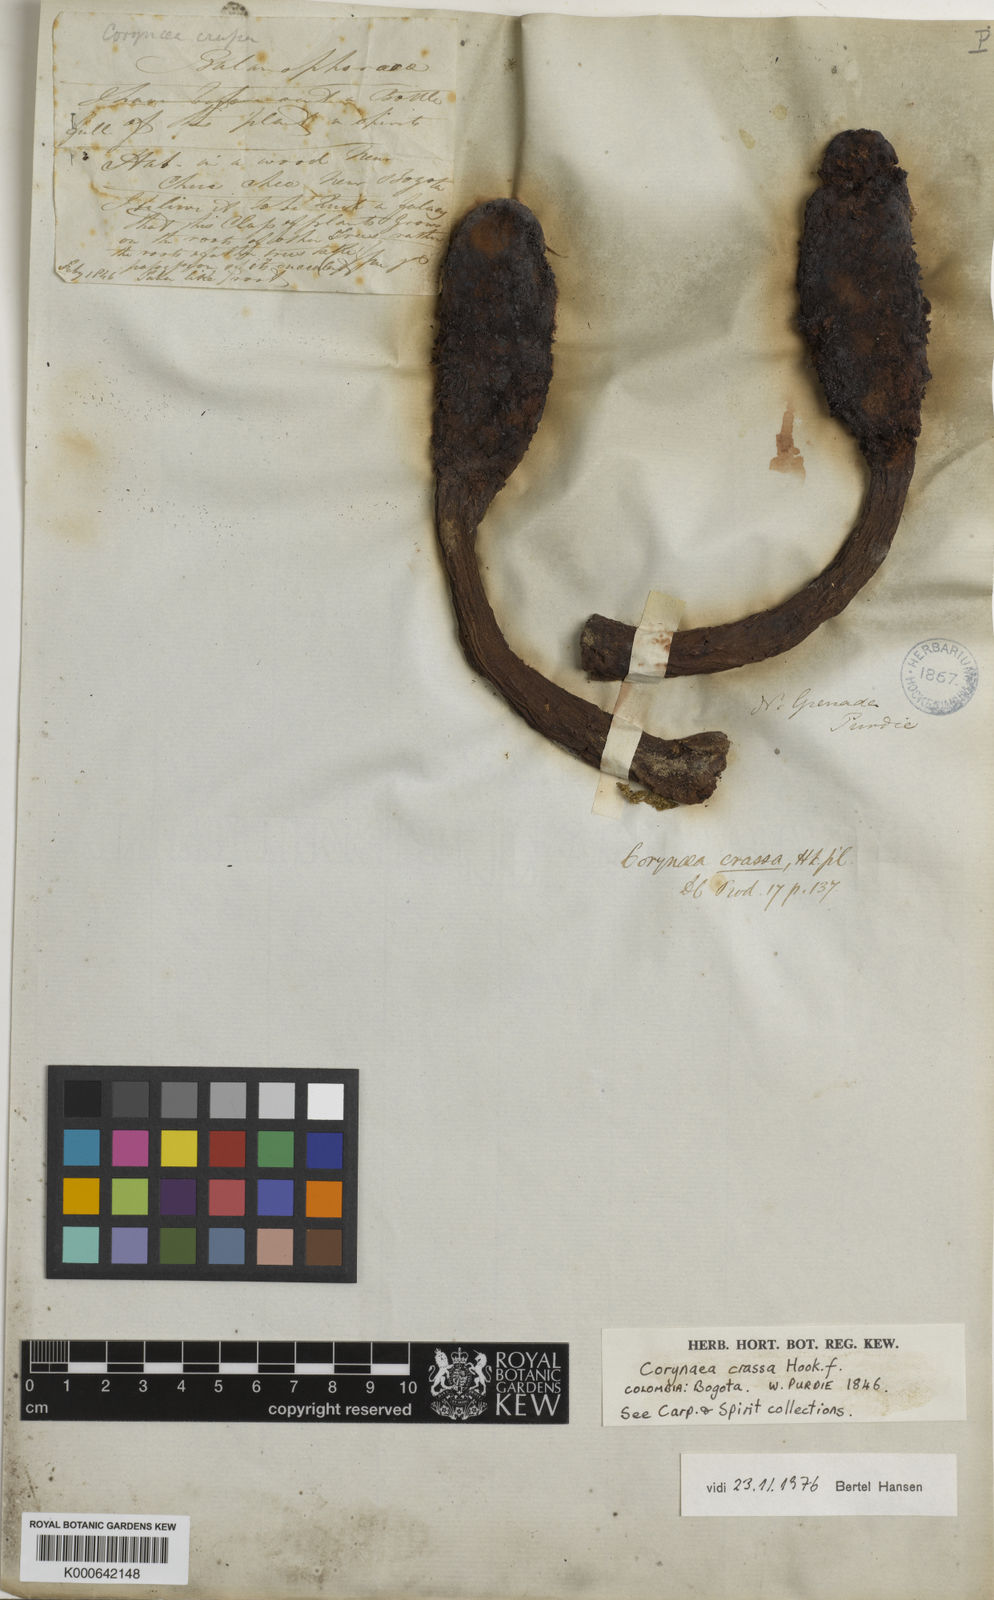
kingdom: Plantae
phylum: Tracheophyta
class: Magnoliopsida
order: Santalales
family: Balanophoraceae
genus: Corynaea
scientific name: Corynaea crassa
